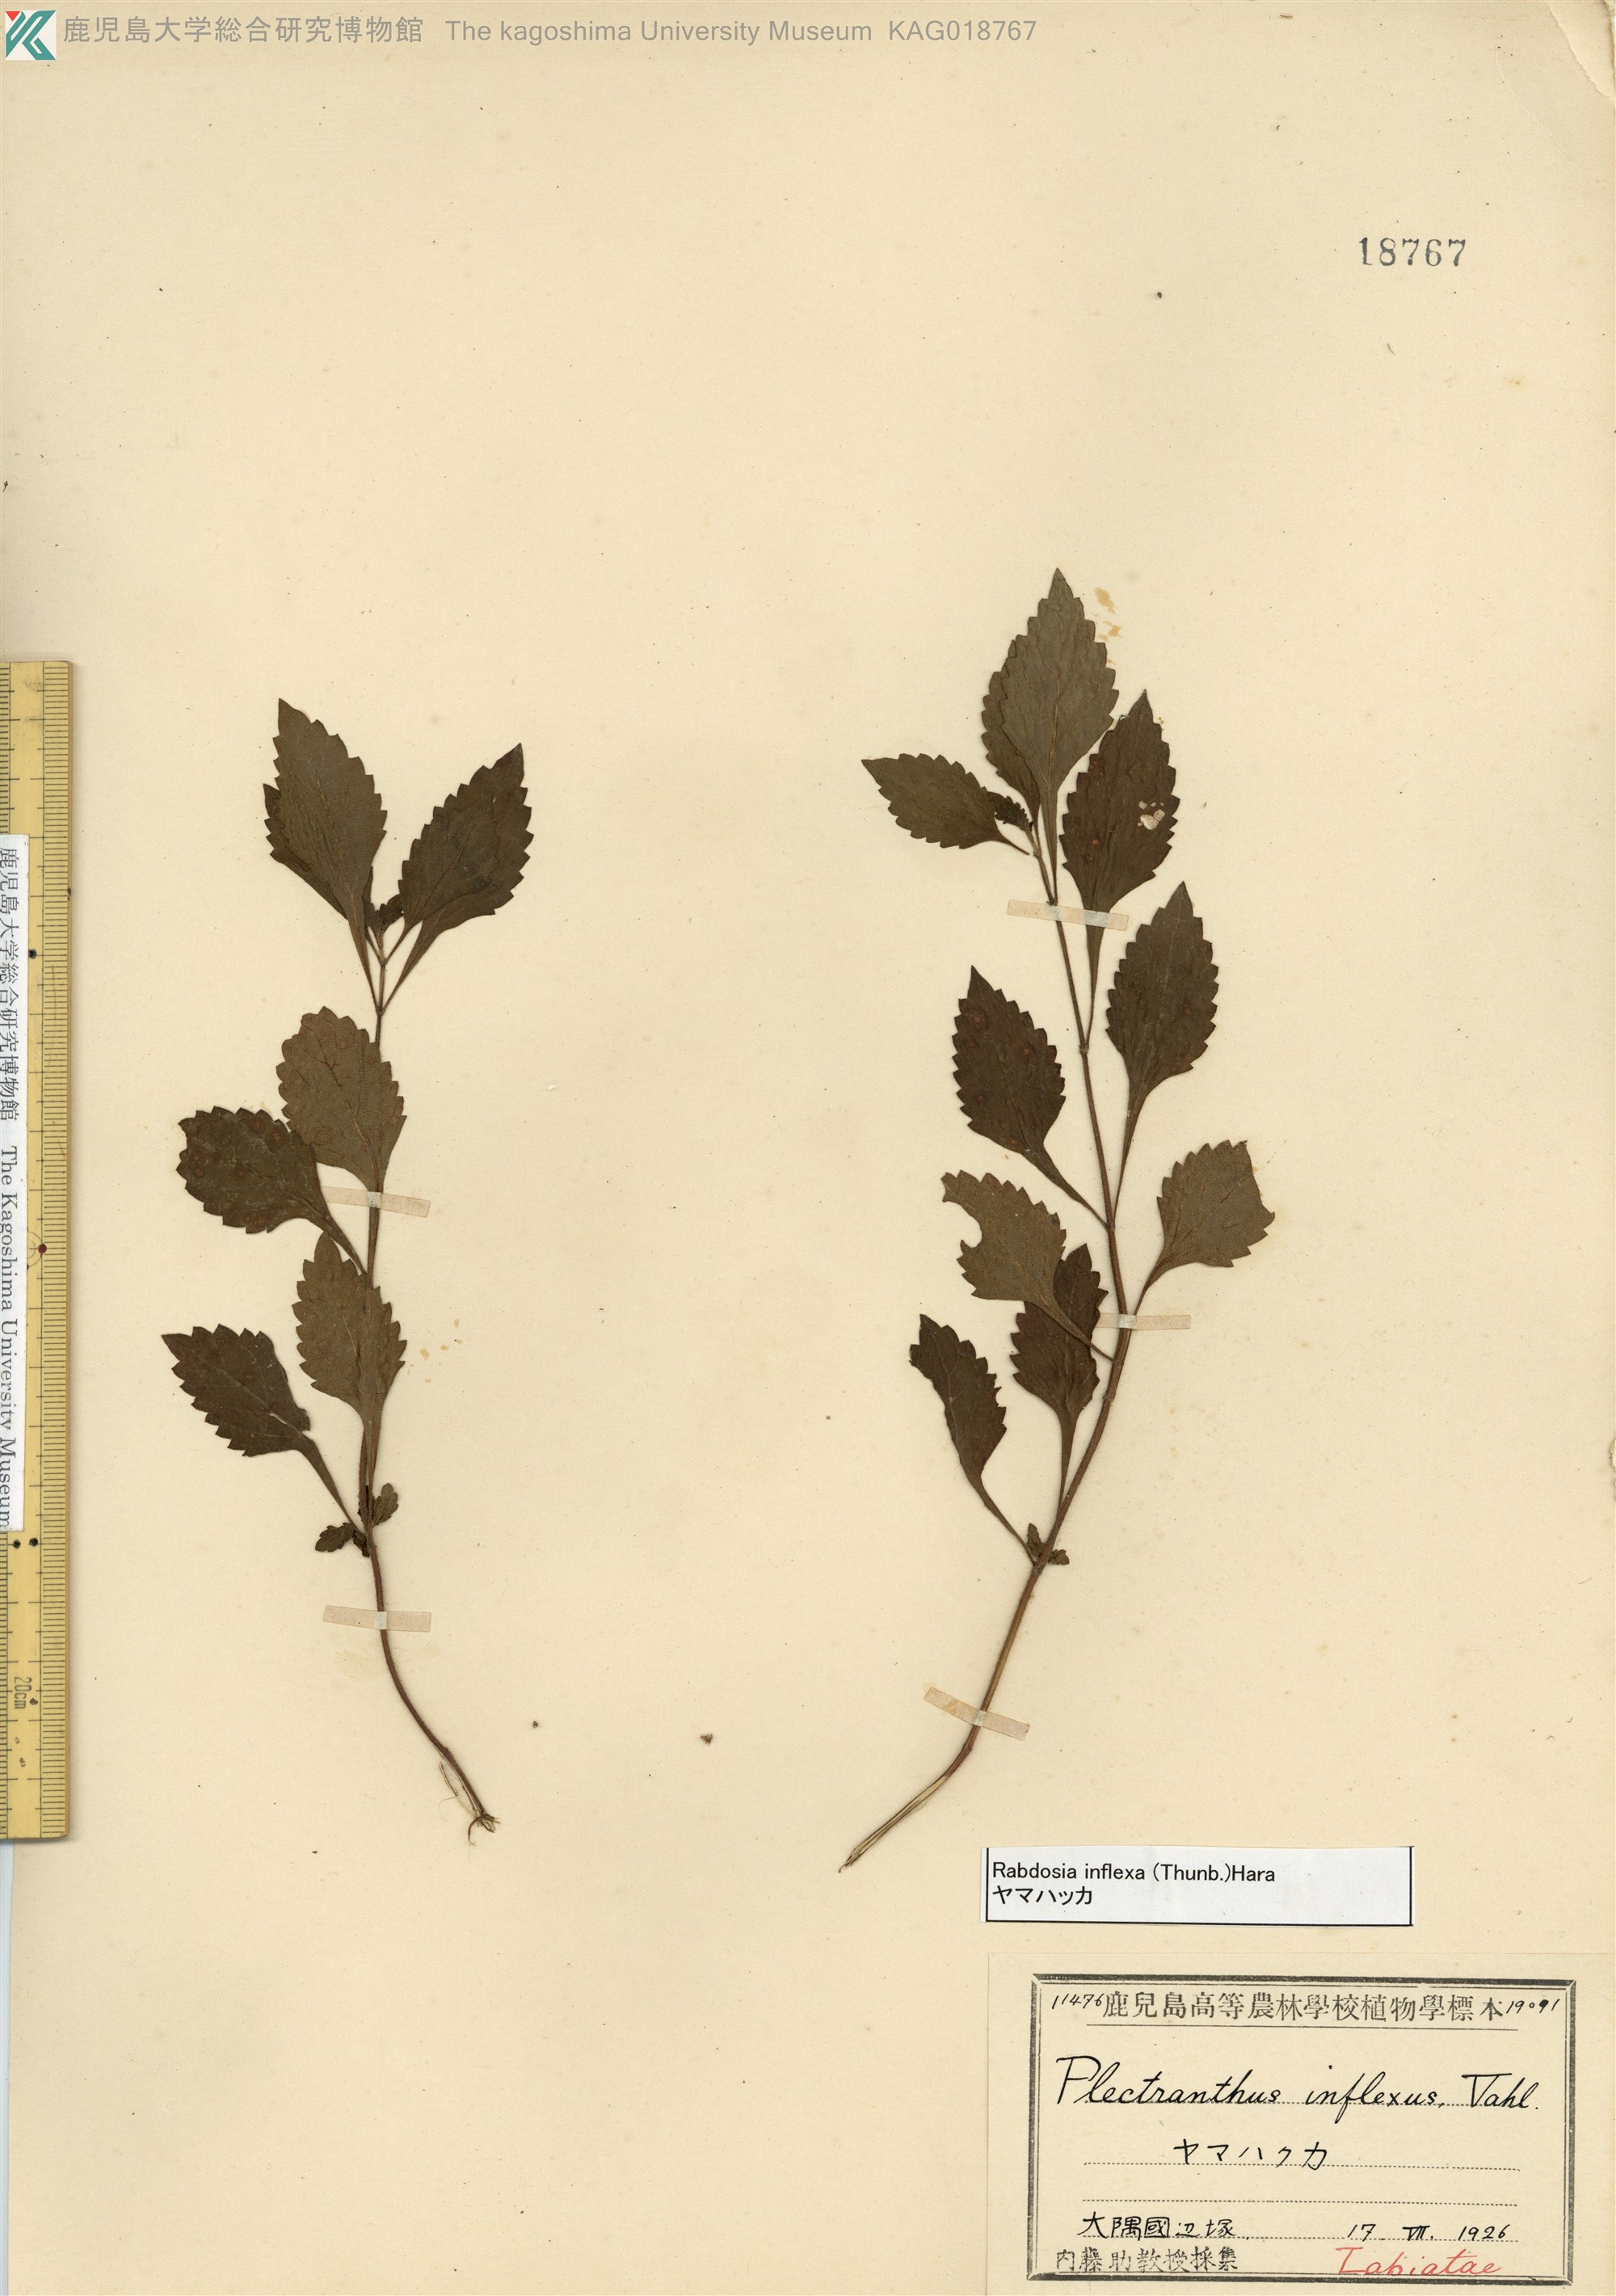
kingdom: Plantae
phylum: Tracheophyta
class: Magnoliopsida
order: Lamiales
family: Lamiaceae
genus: Isodon
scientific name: Isodon inflexus
